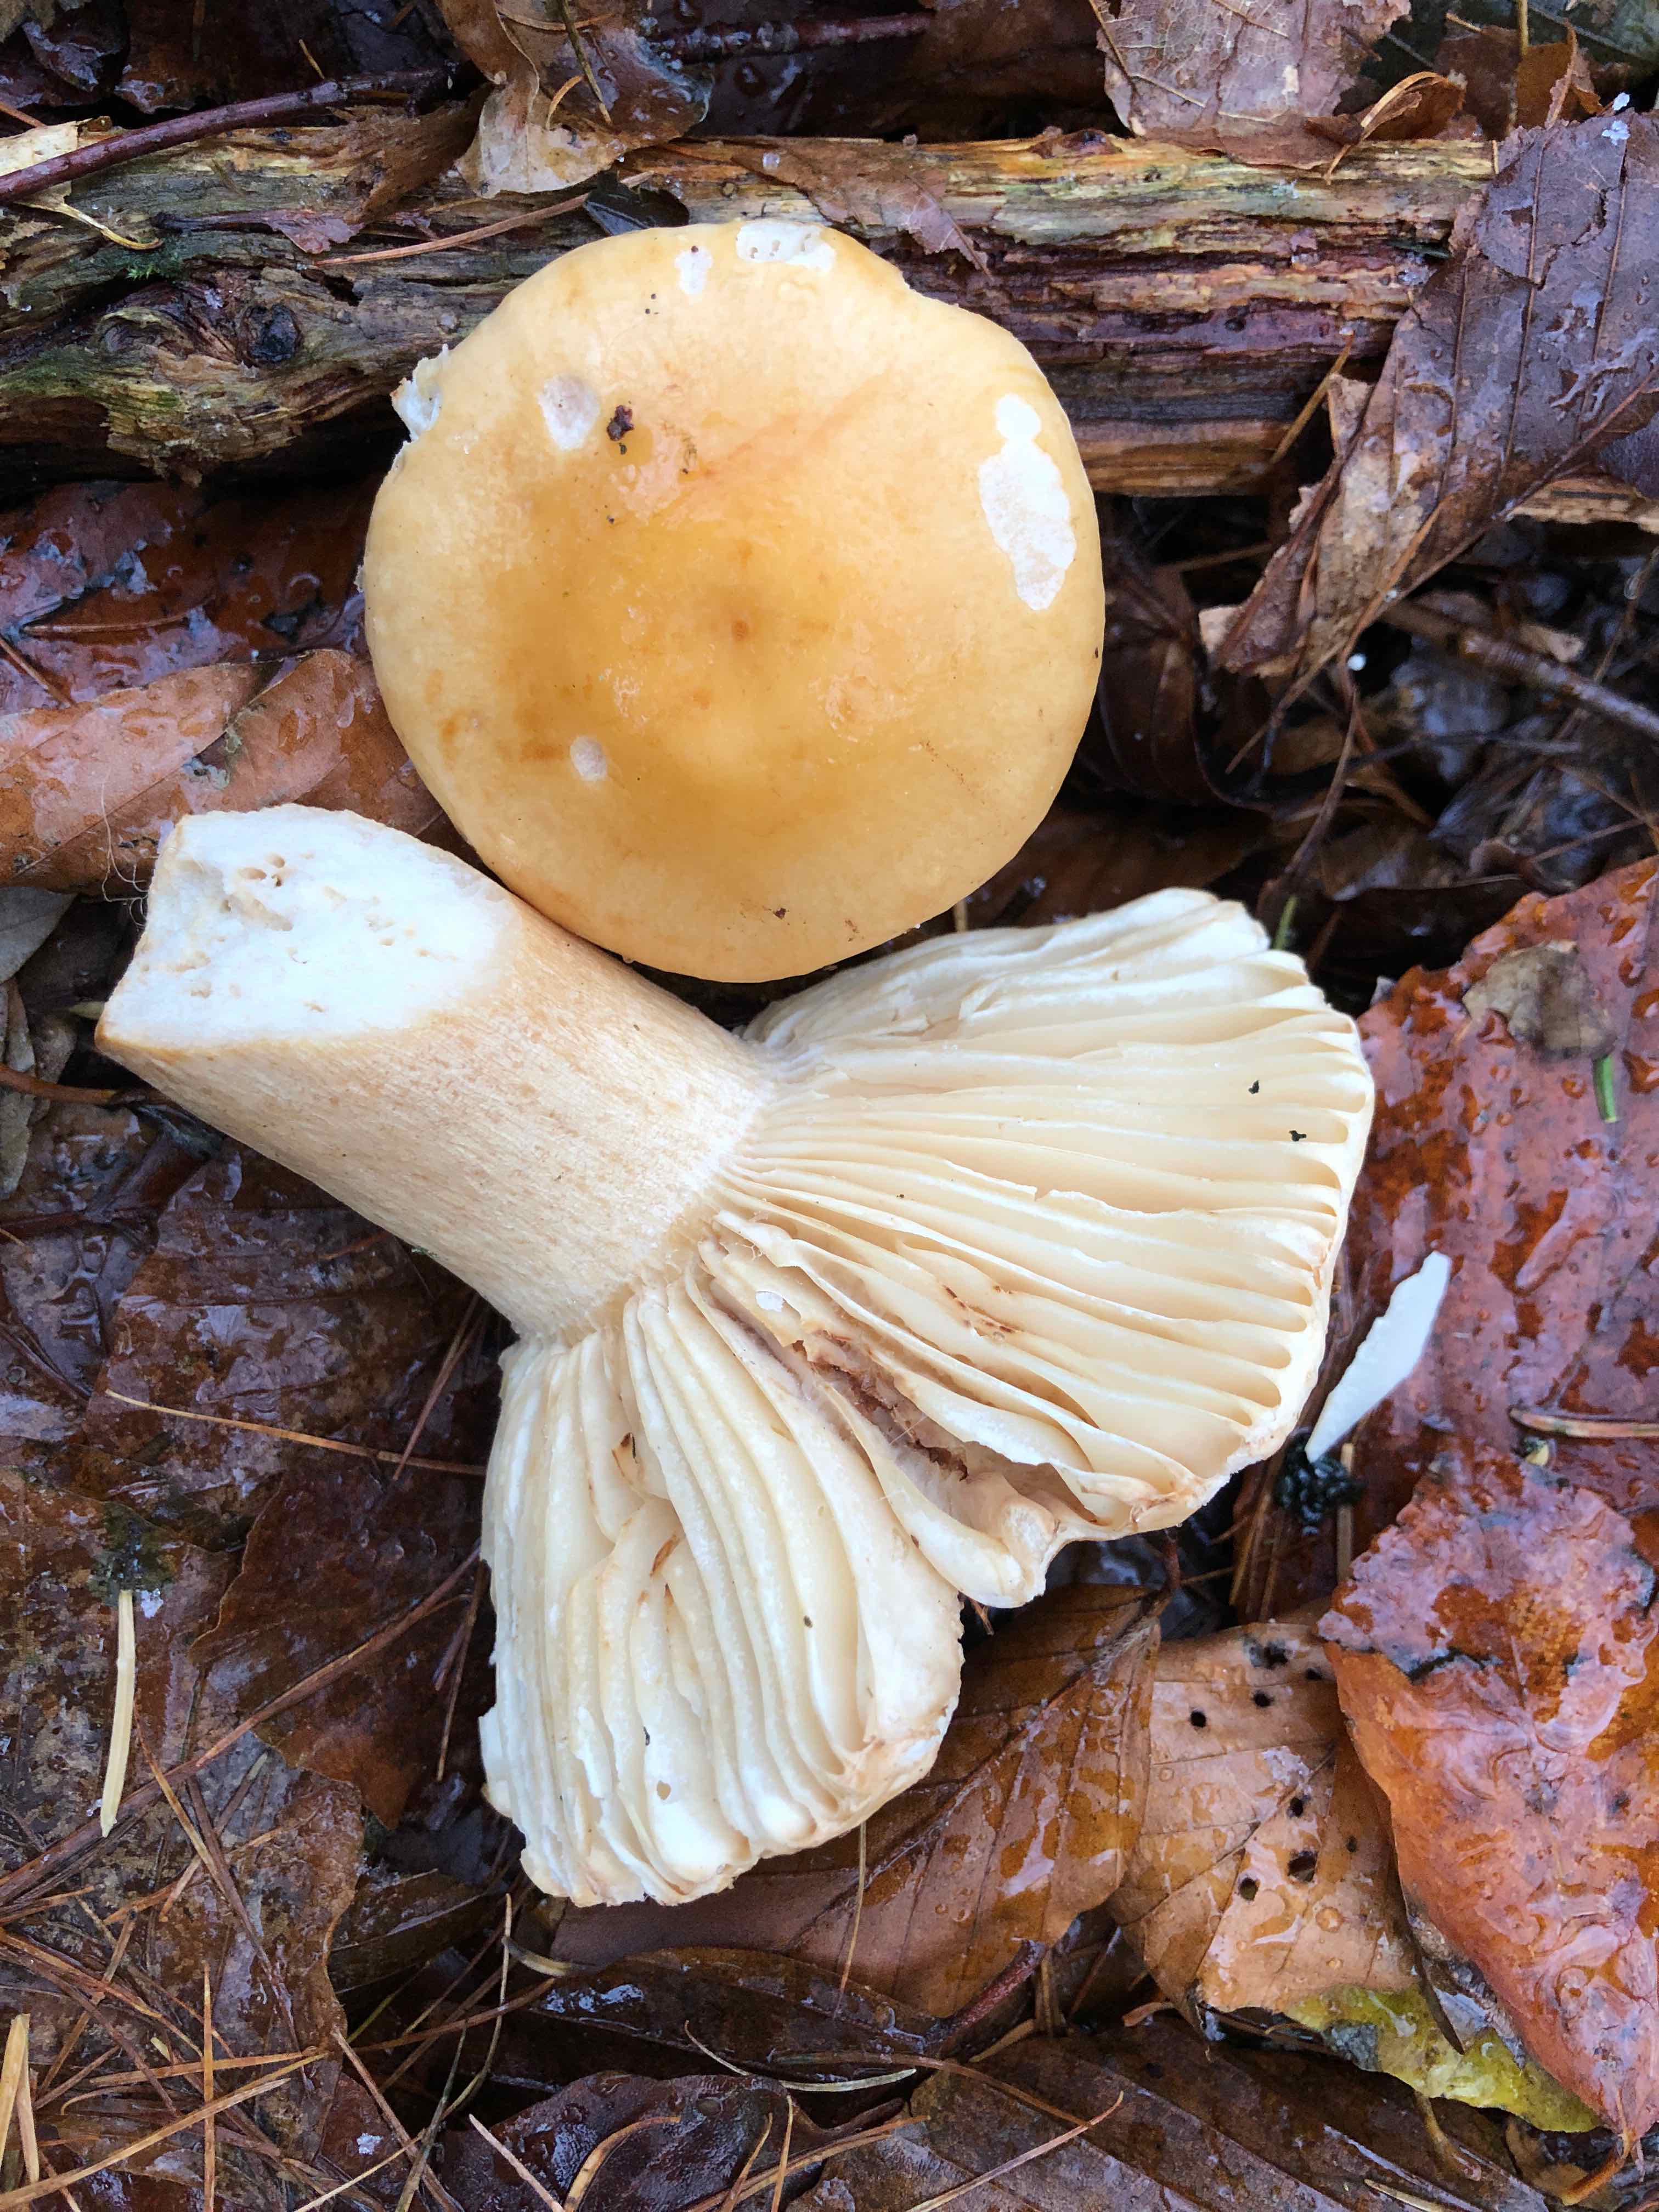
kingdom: Fungi
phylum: Basidiomycota
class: Agaricomycetes
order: Russulales
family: Russulaceae
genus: Russula
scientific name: Russula fellea
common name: galde-skørhat
